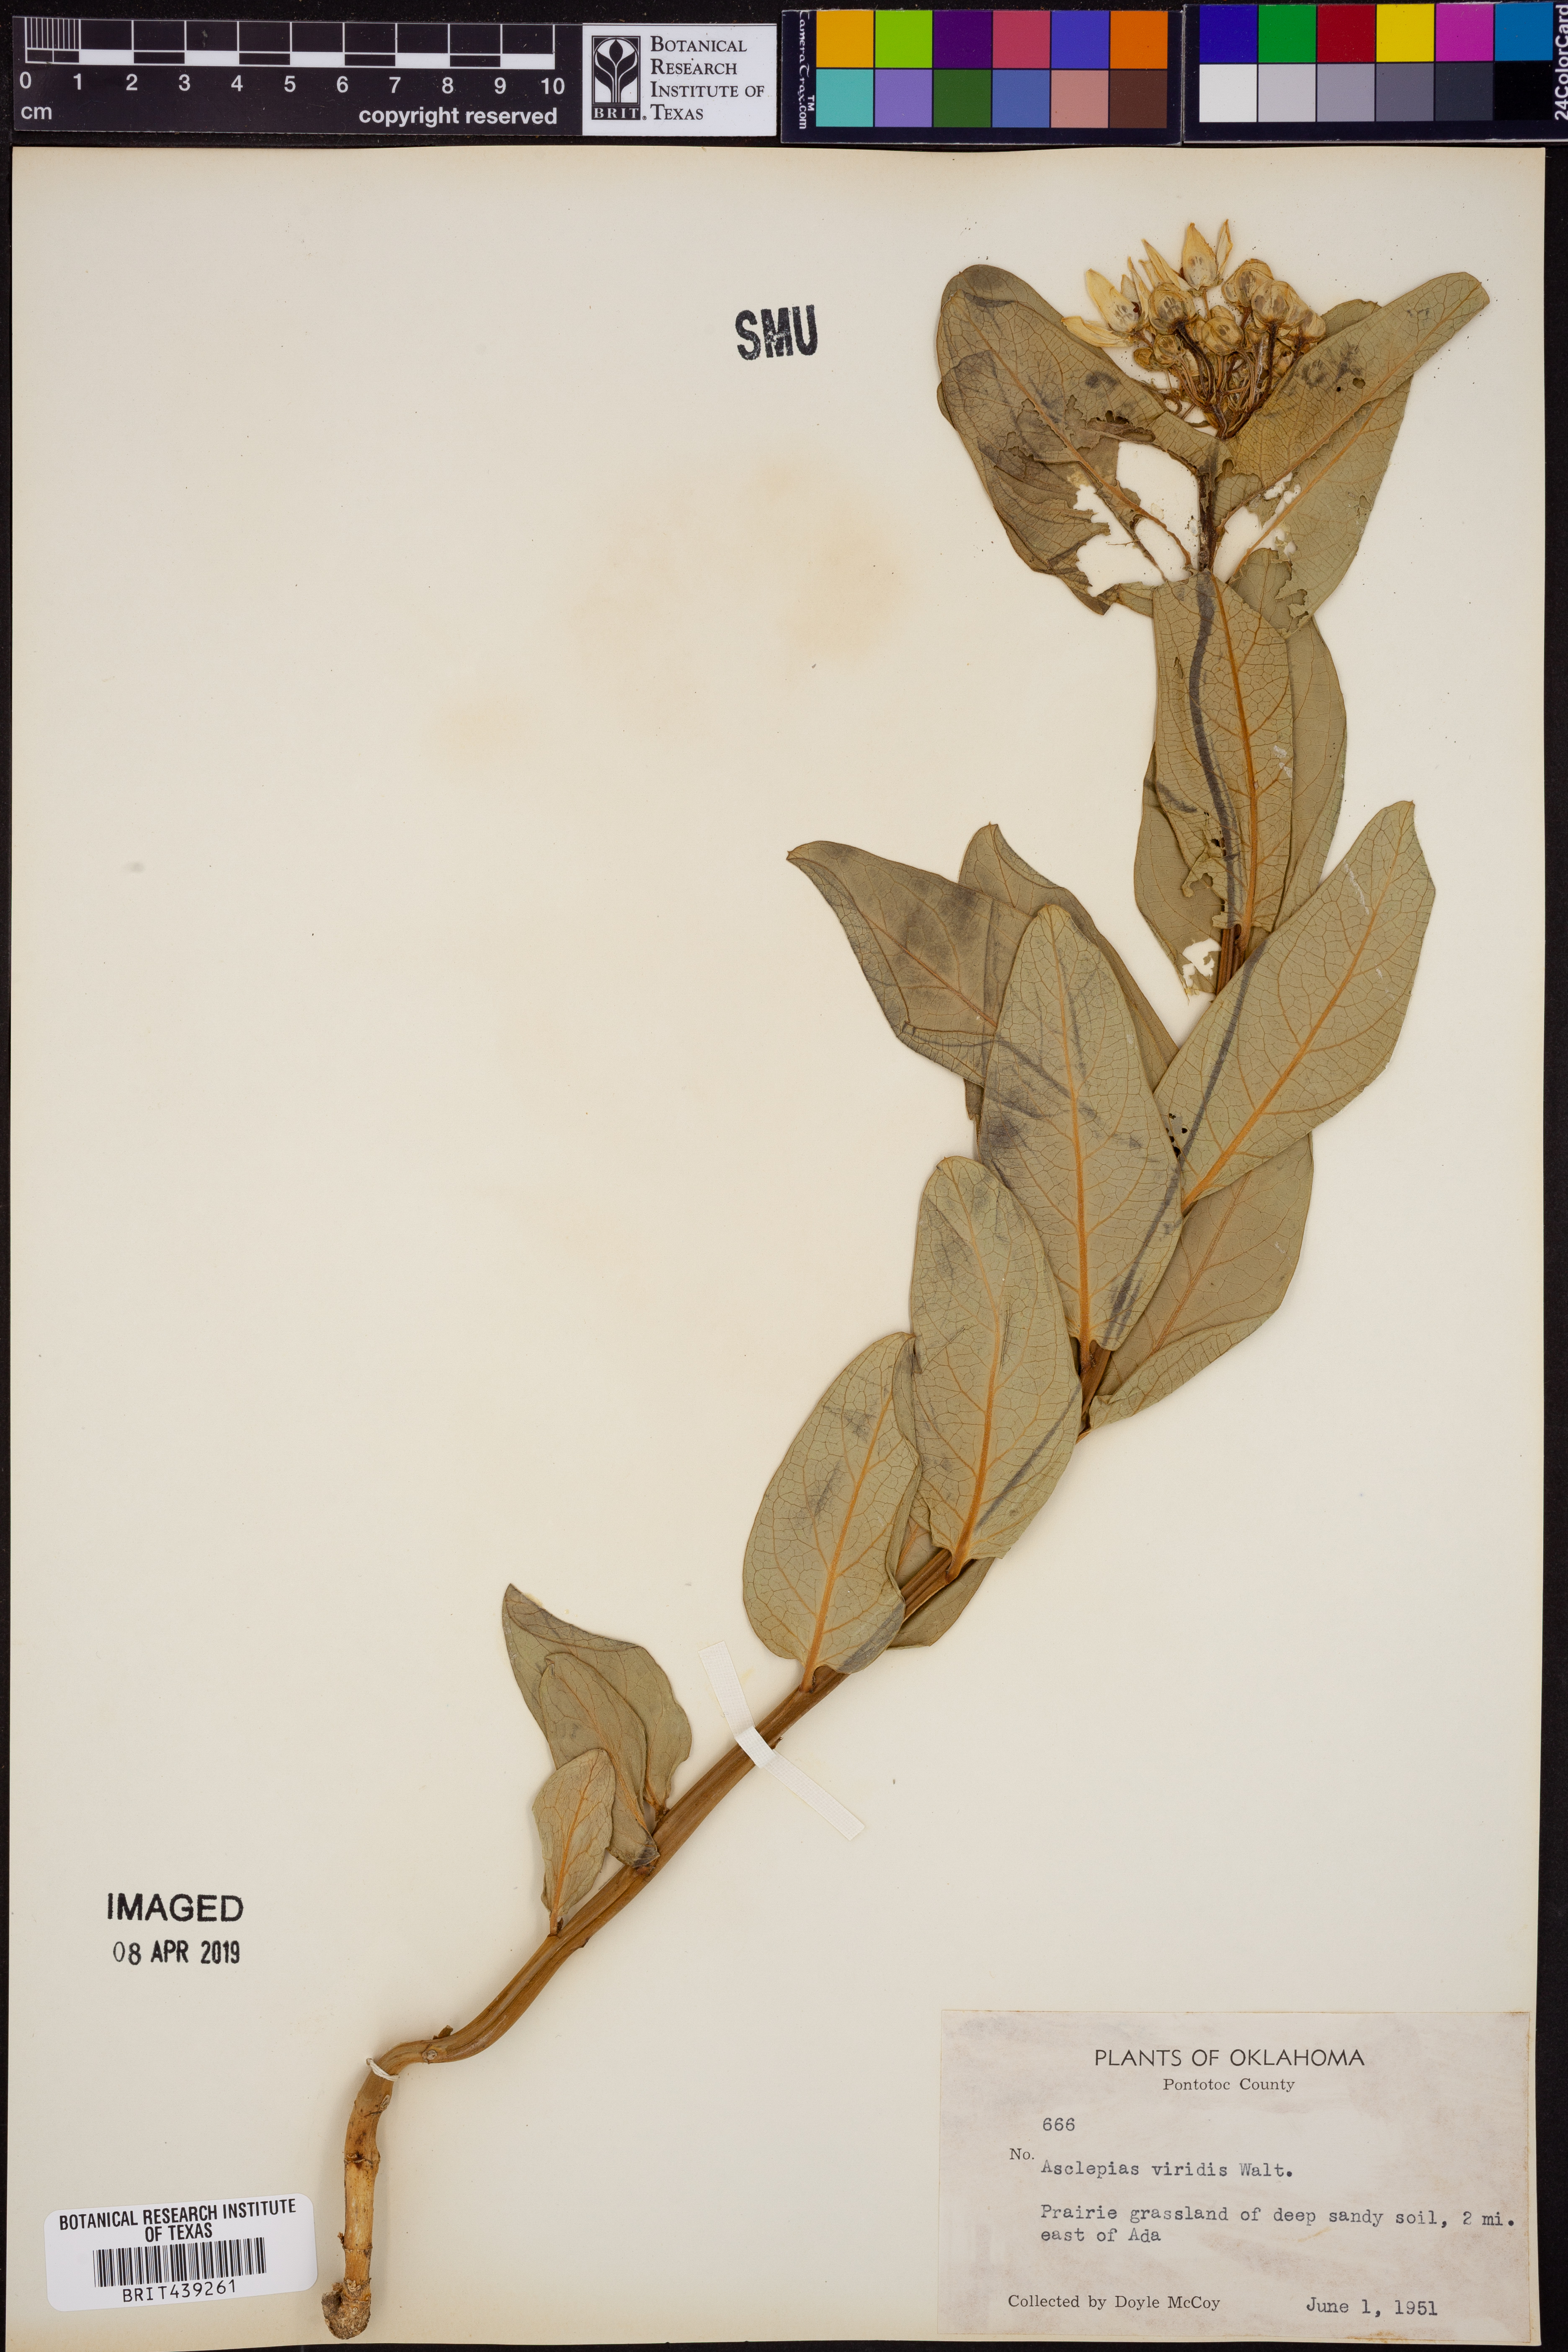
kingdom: Plantae
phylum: Tracheophyta
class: Magnoliopsida
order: Gentianales
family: Apocynaceae
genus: Asclepias
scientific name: Asclepias viridis
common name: Antelope-horns
